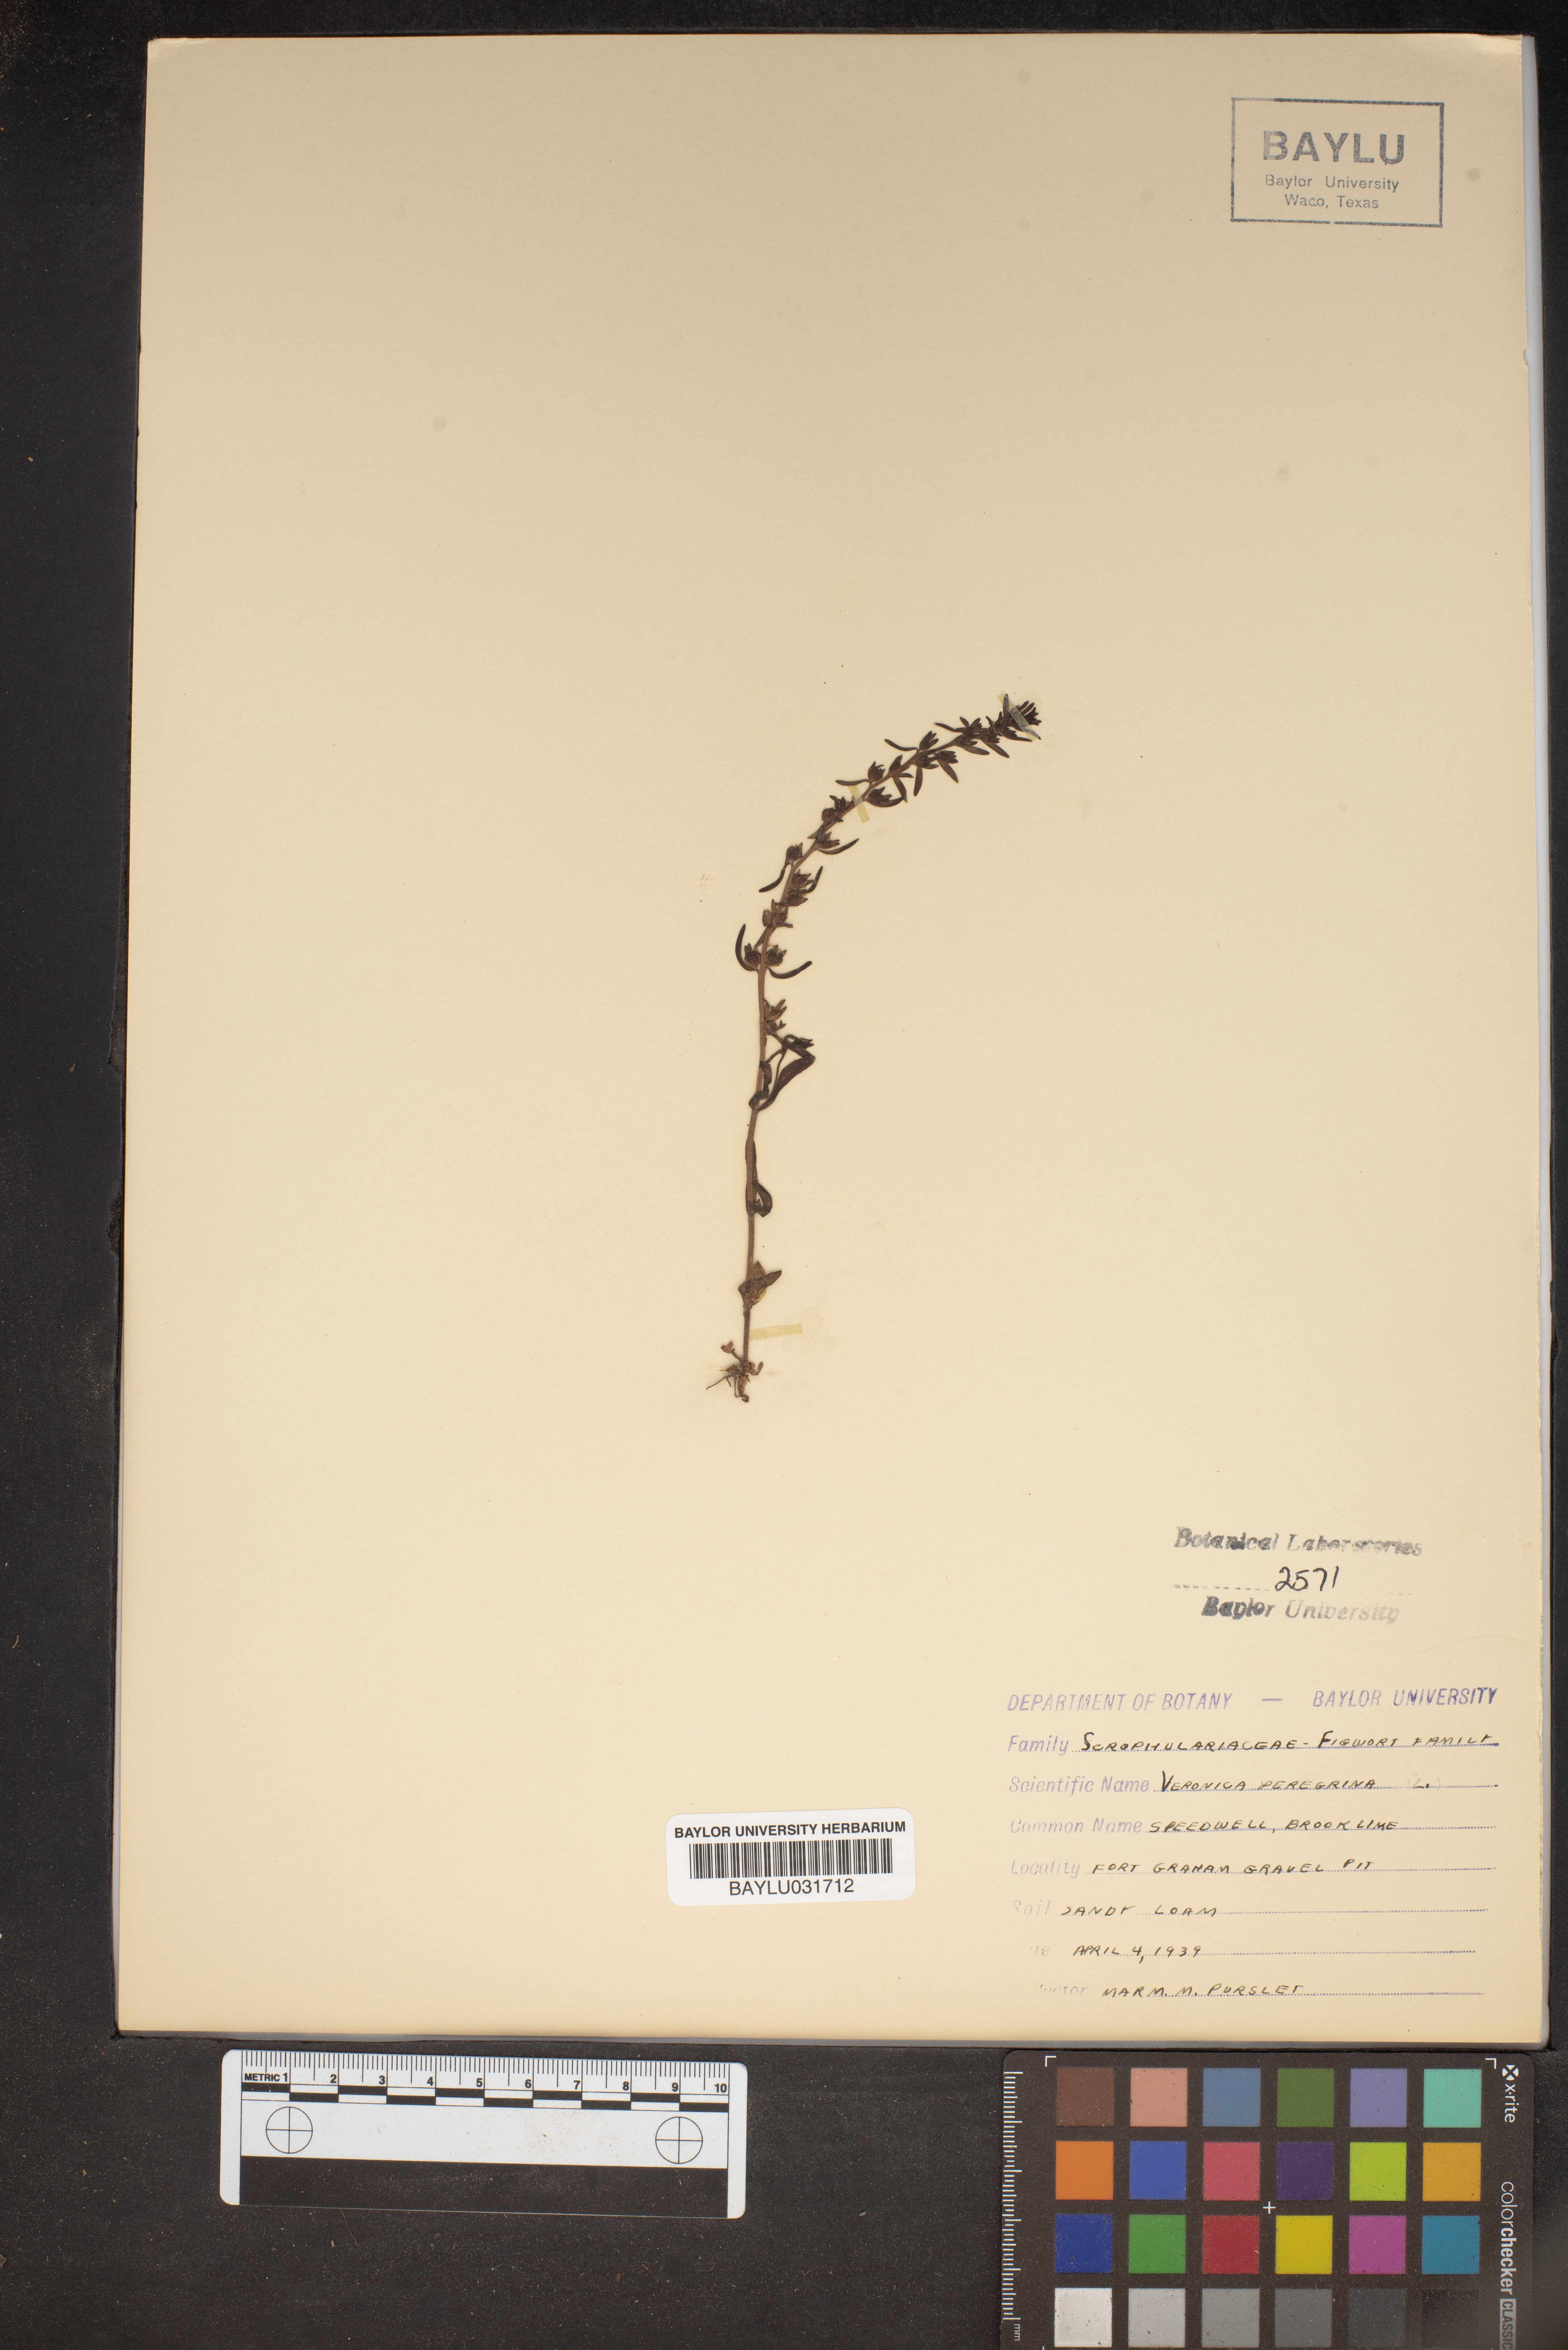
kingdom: Plantae
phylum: Tracheophyta
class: Magnoliopsida
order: Lamiales
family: Plantaginaceae
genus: Veronica
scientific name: Veronica peregrina
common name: Neckweed
